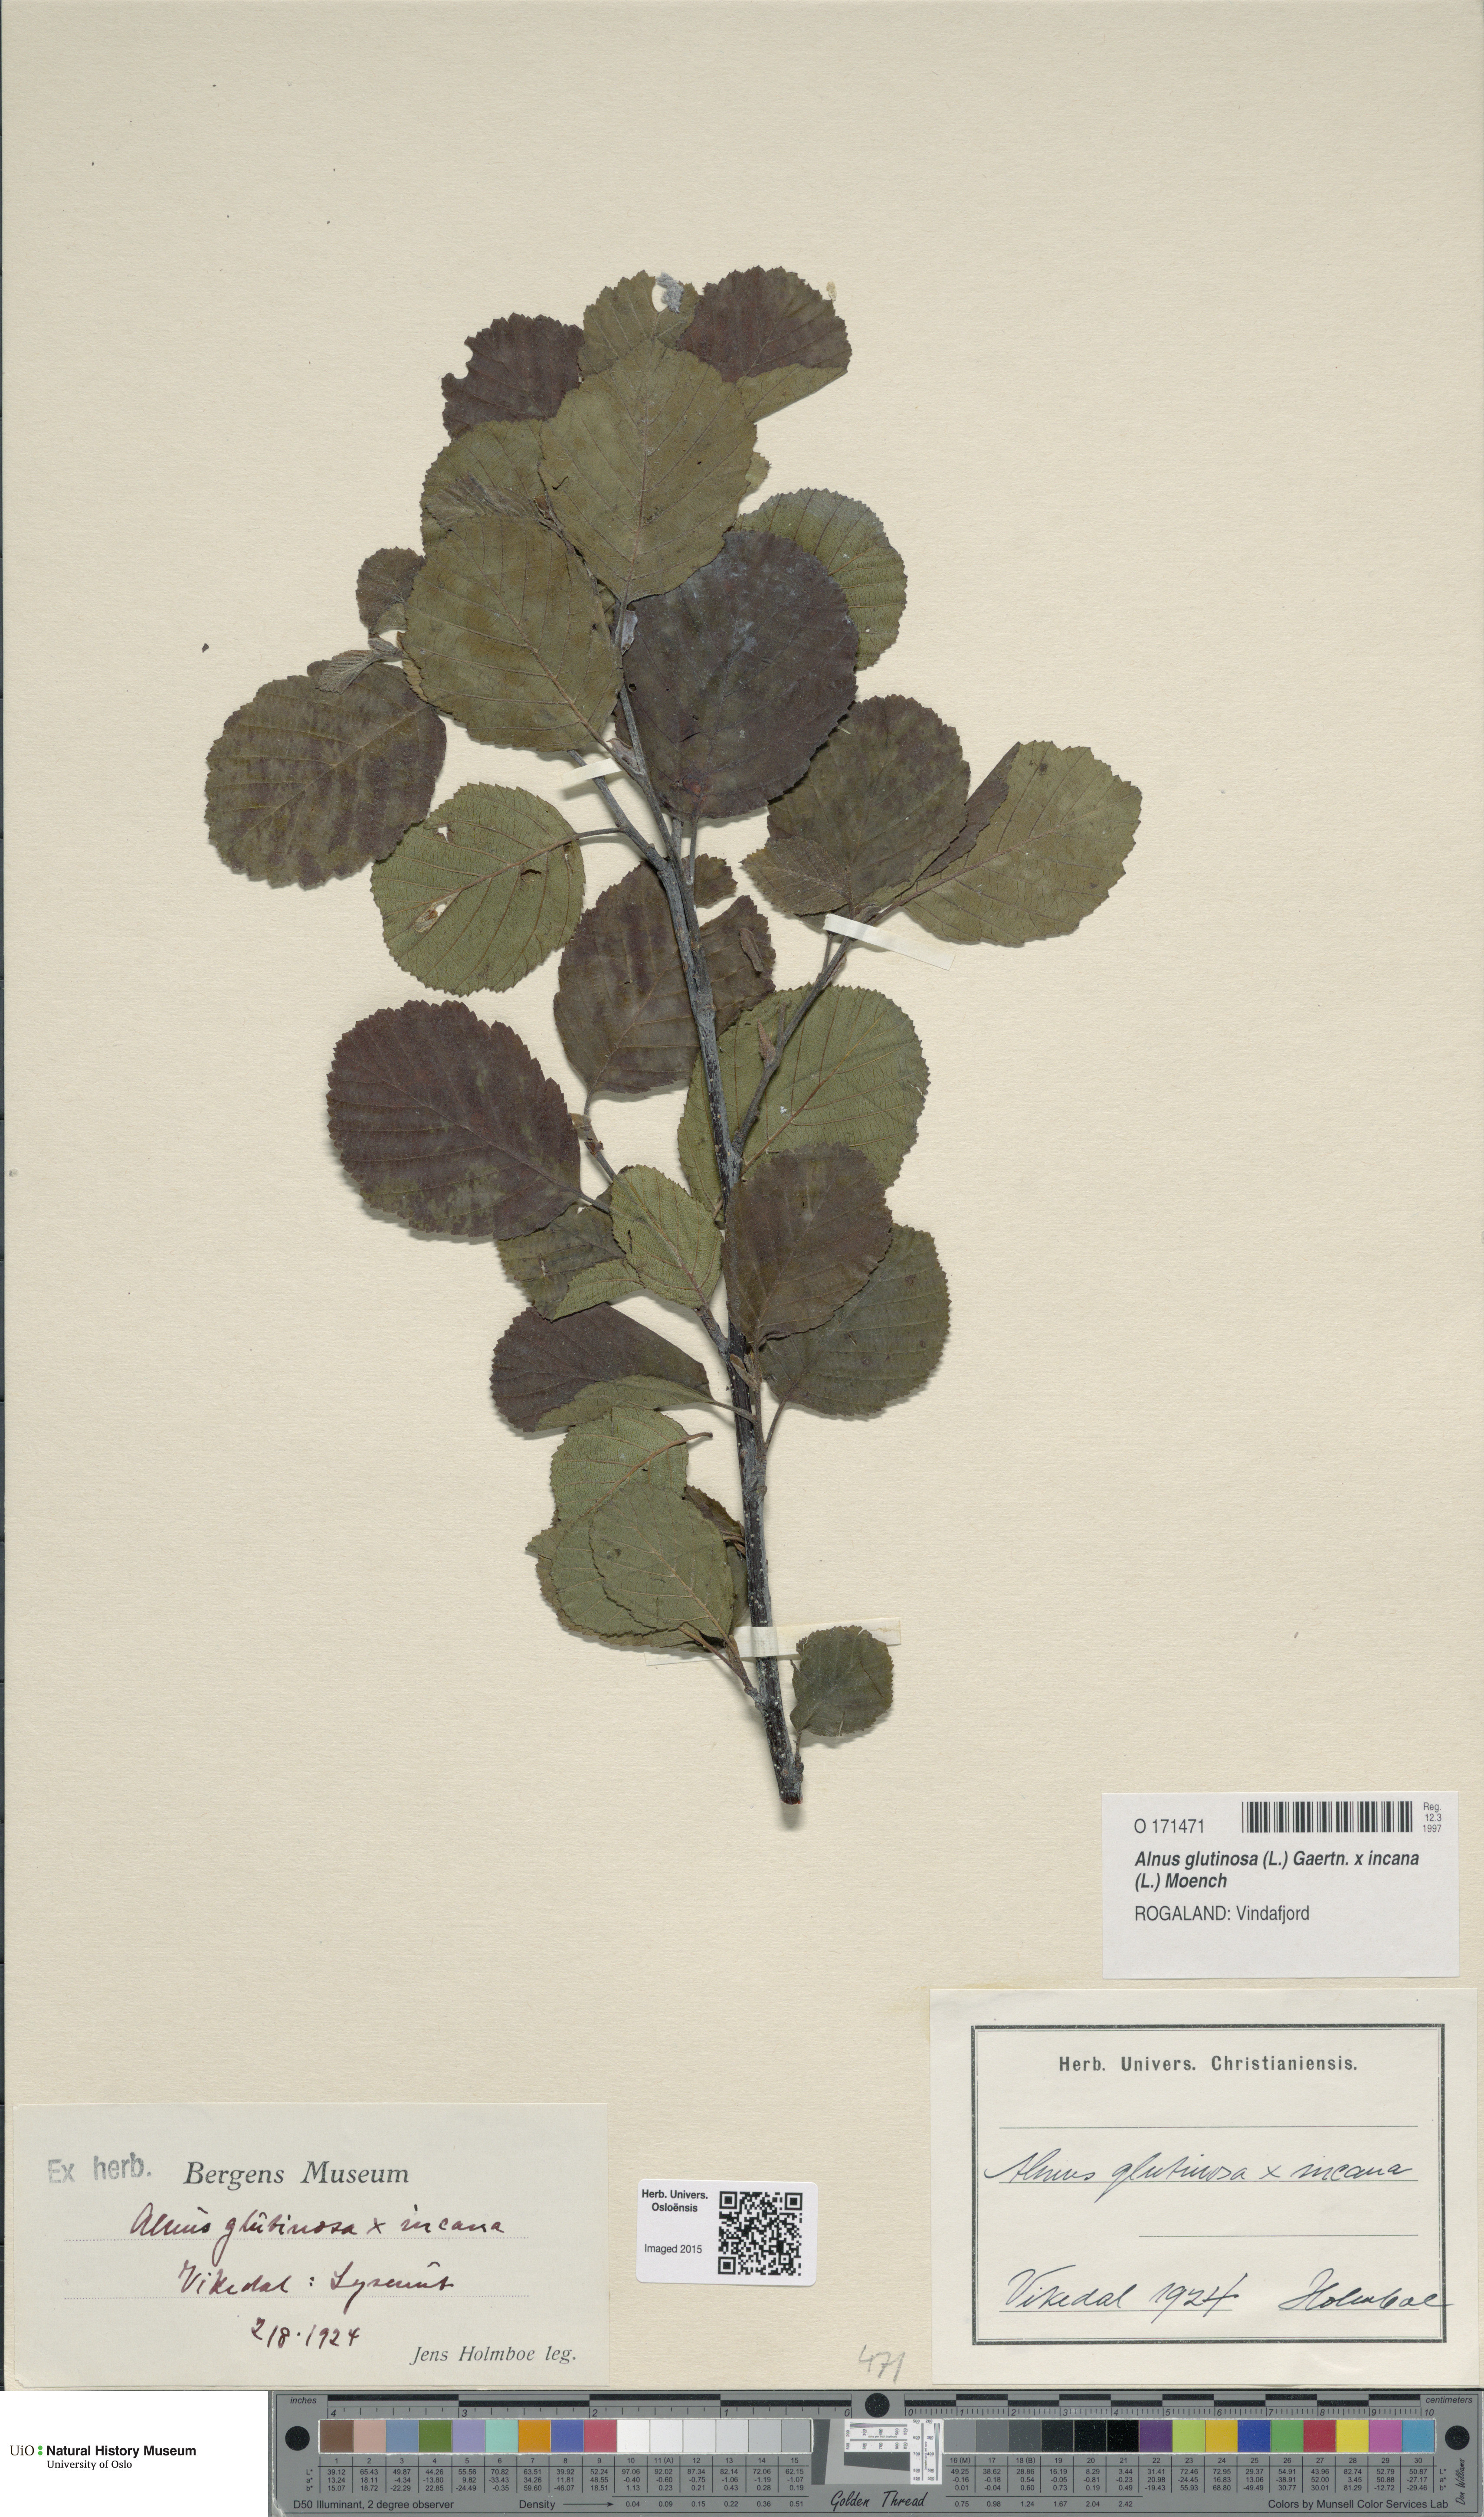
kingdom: Plantae
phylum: Tracheophyta
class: Magnoliopsida
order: Fagales
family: Betulaceae
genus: Alnus
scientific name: Alnus
